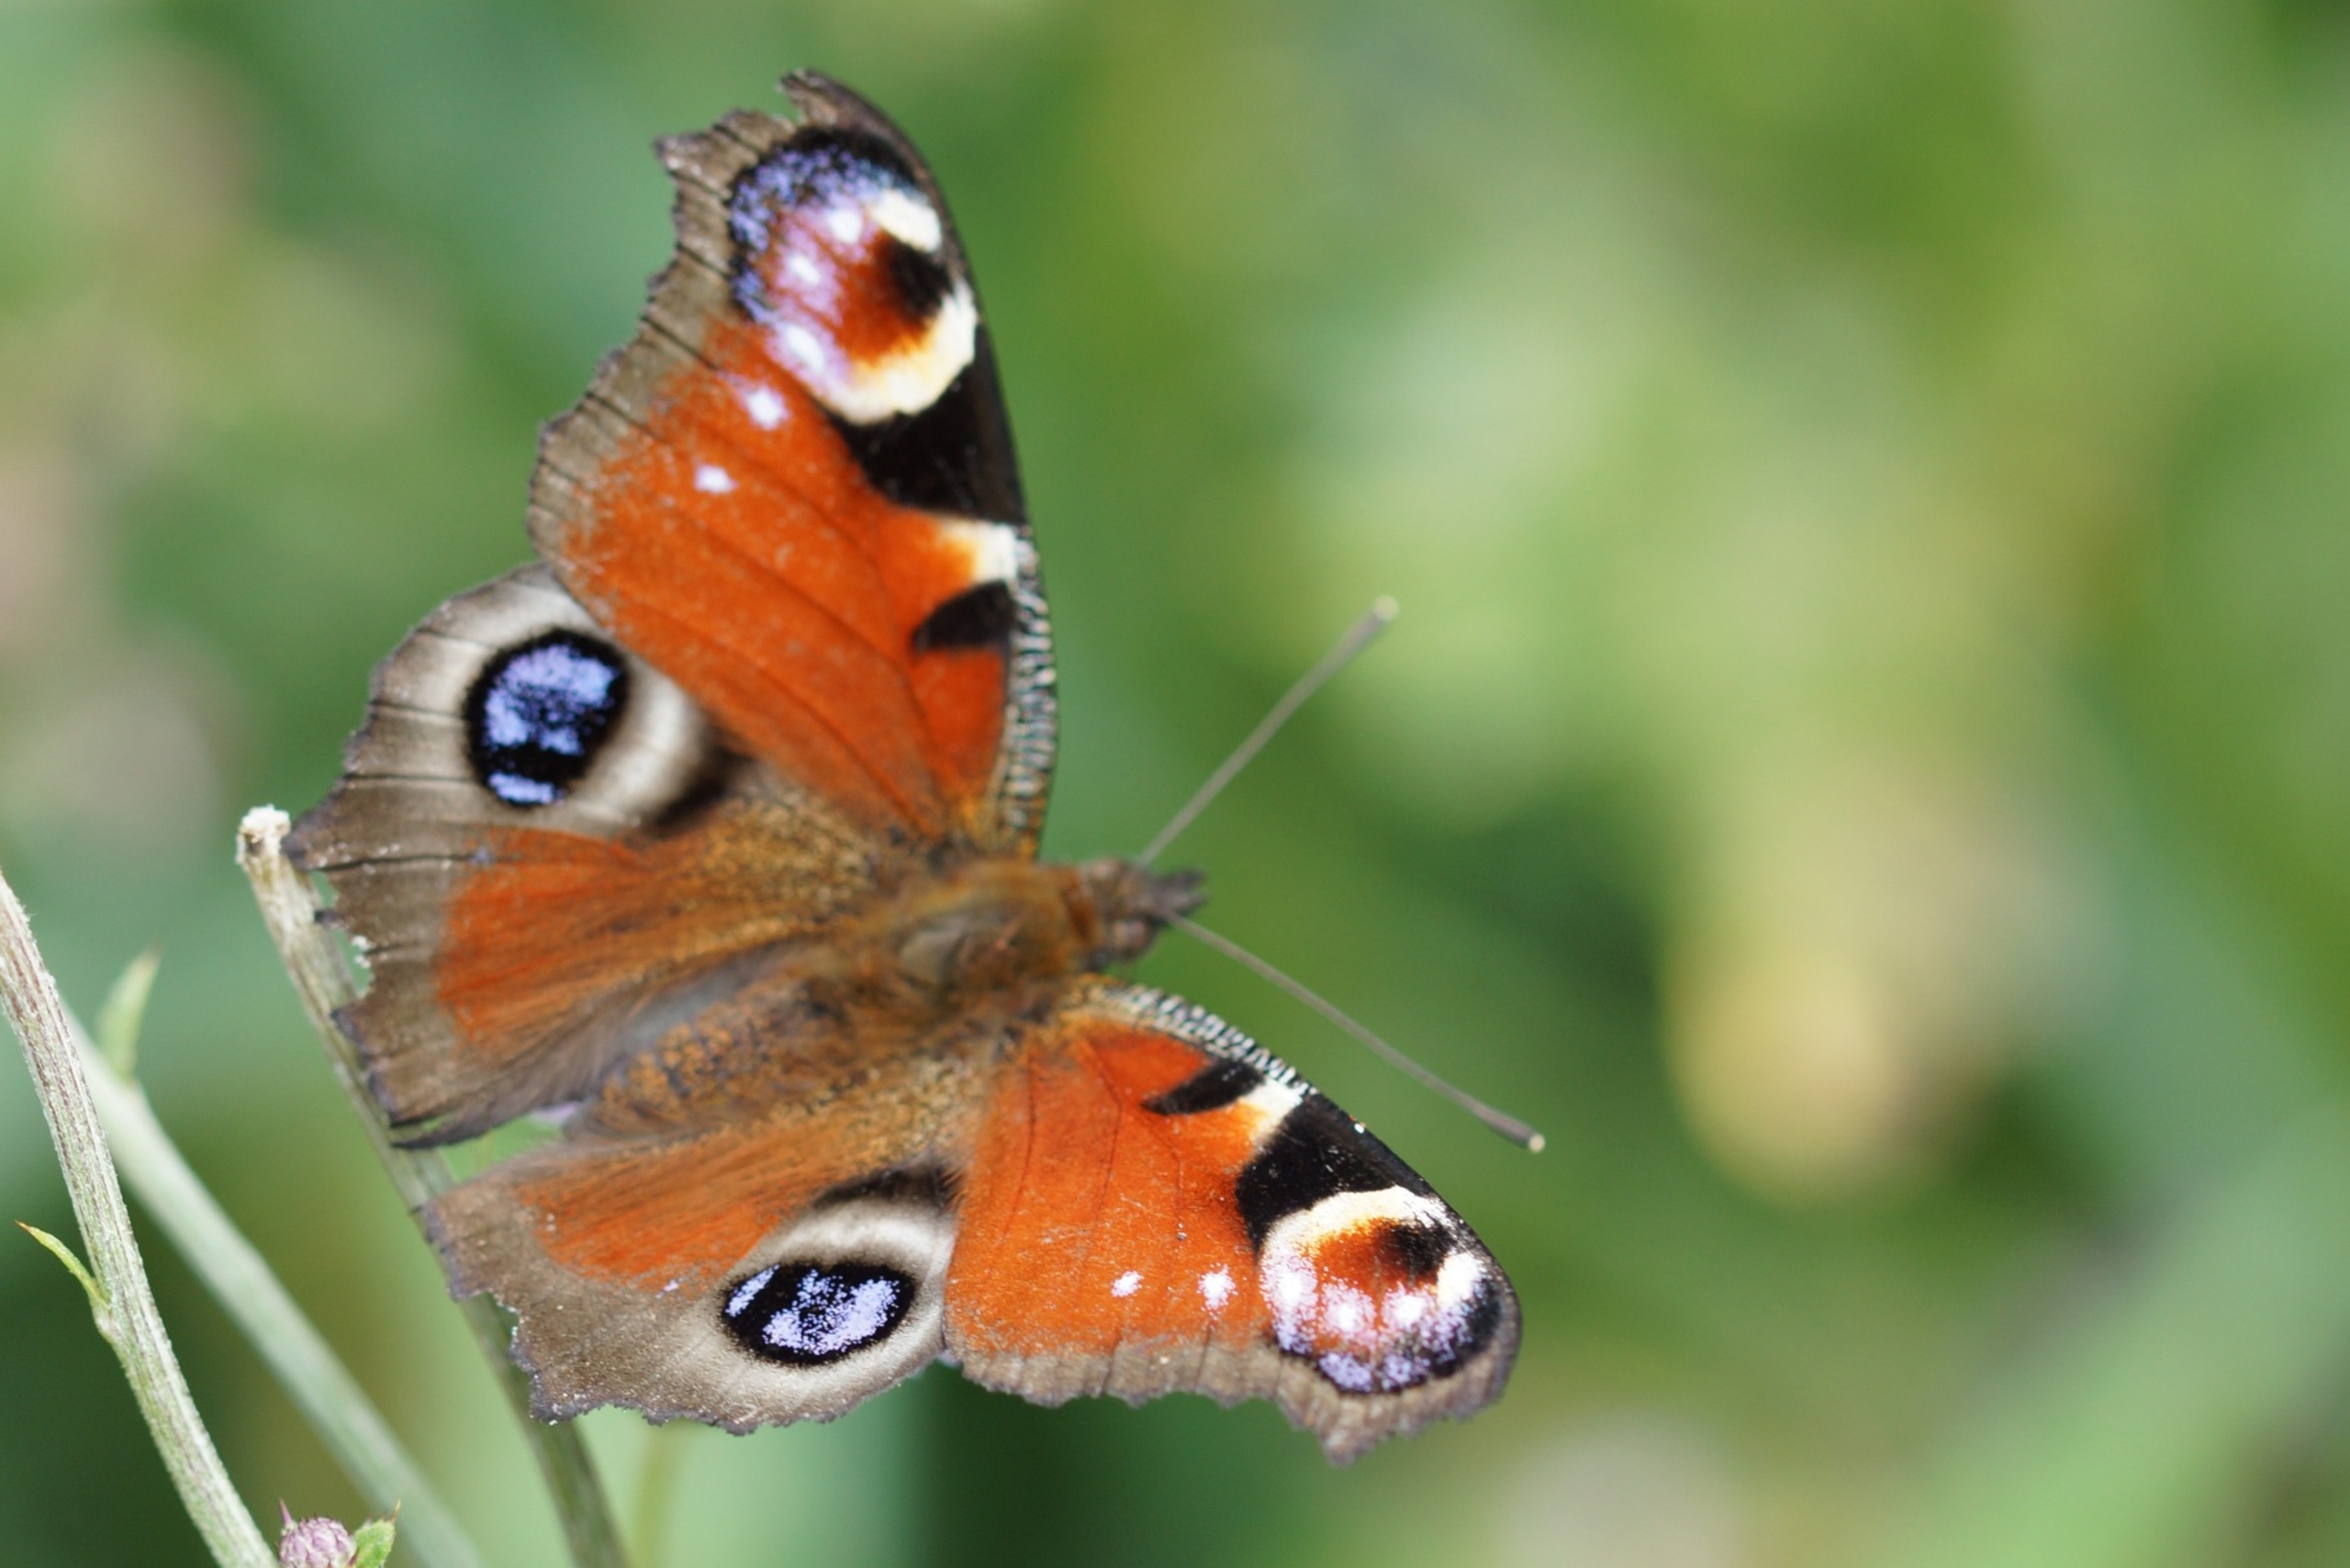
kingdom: Animalia
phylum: Arthropoda
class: Insecta
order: Lepidoptera
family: Nymphalidae
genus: Aglais
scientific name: Aglais io
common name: Dagpåfugleøje
